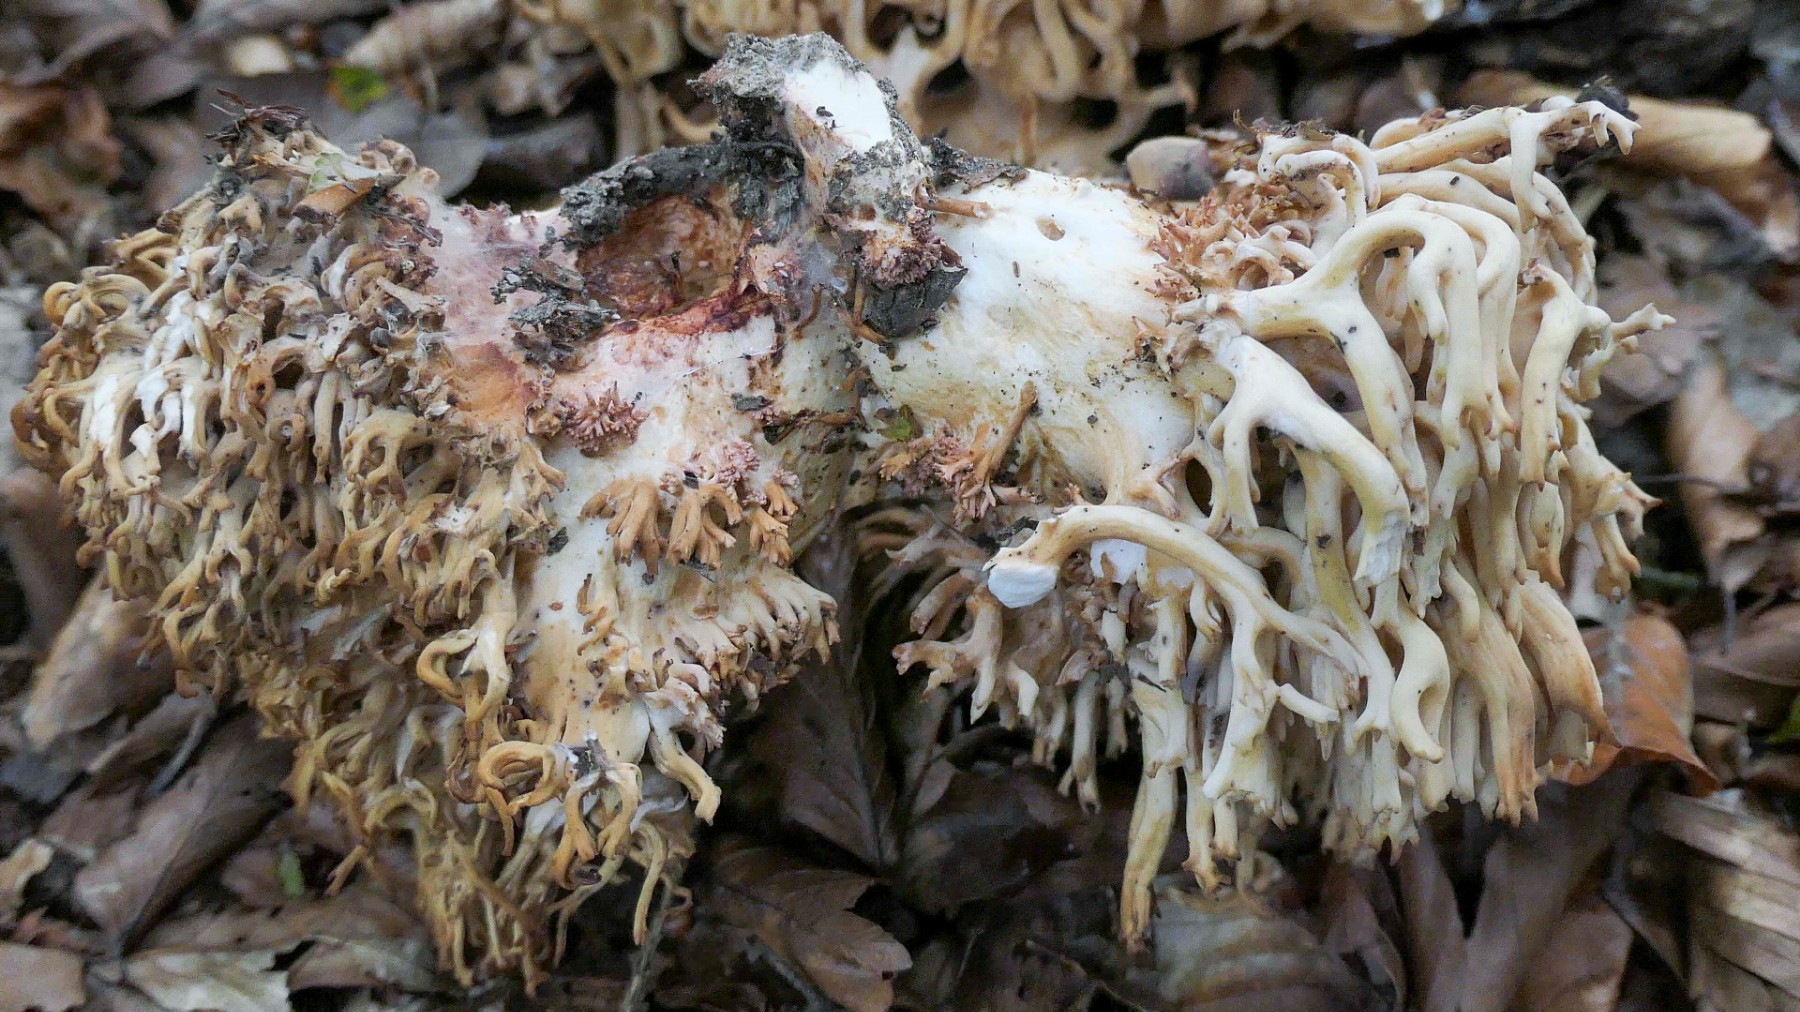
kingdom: Fungi
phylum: Basidiomycota
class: Agaricomycetes
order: Gomphales
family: Gomphaceae
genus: Ramaria
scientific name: Ramaria sanguinea
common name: blodplettet koralsvamp
